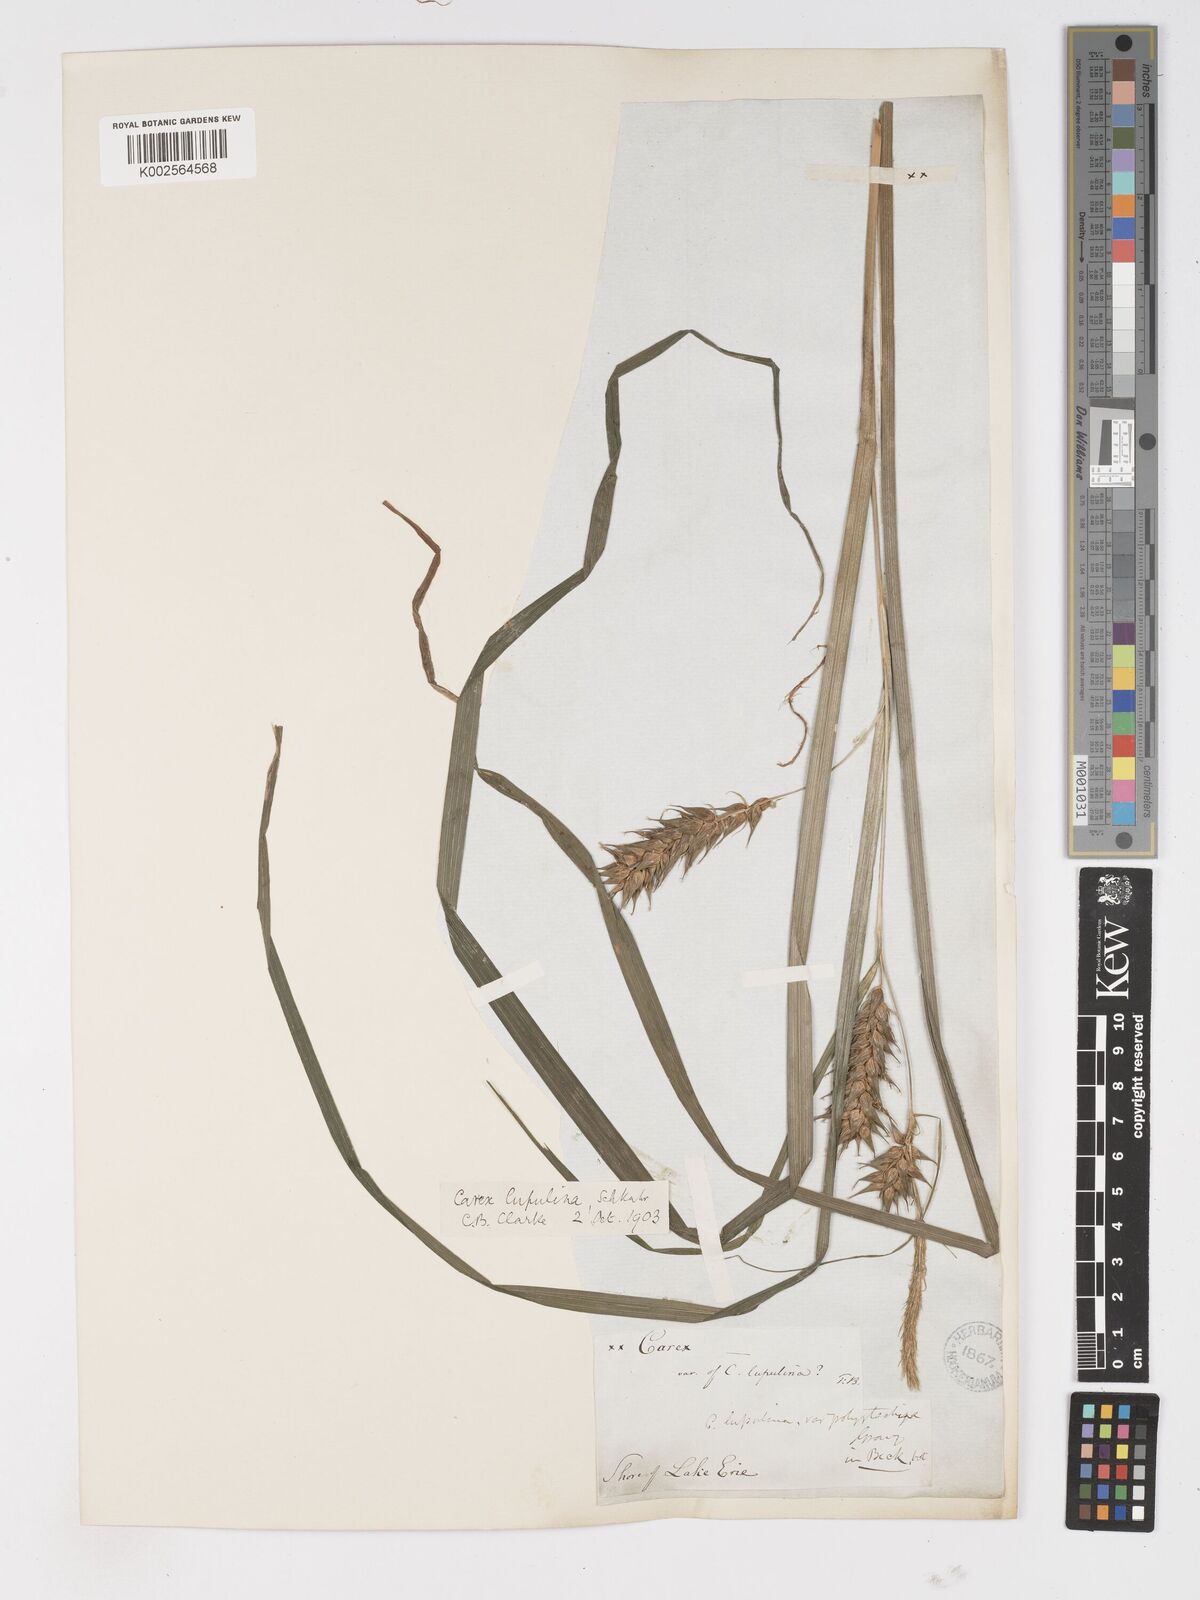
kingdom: Plantae
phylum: Tracheophyta
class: Liliopsida
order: Poales
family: Cyperaceae
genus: Carex
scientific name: Carex lupulina
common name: Hop sedge
